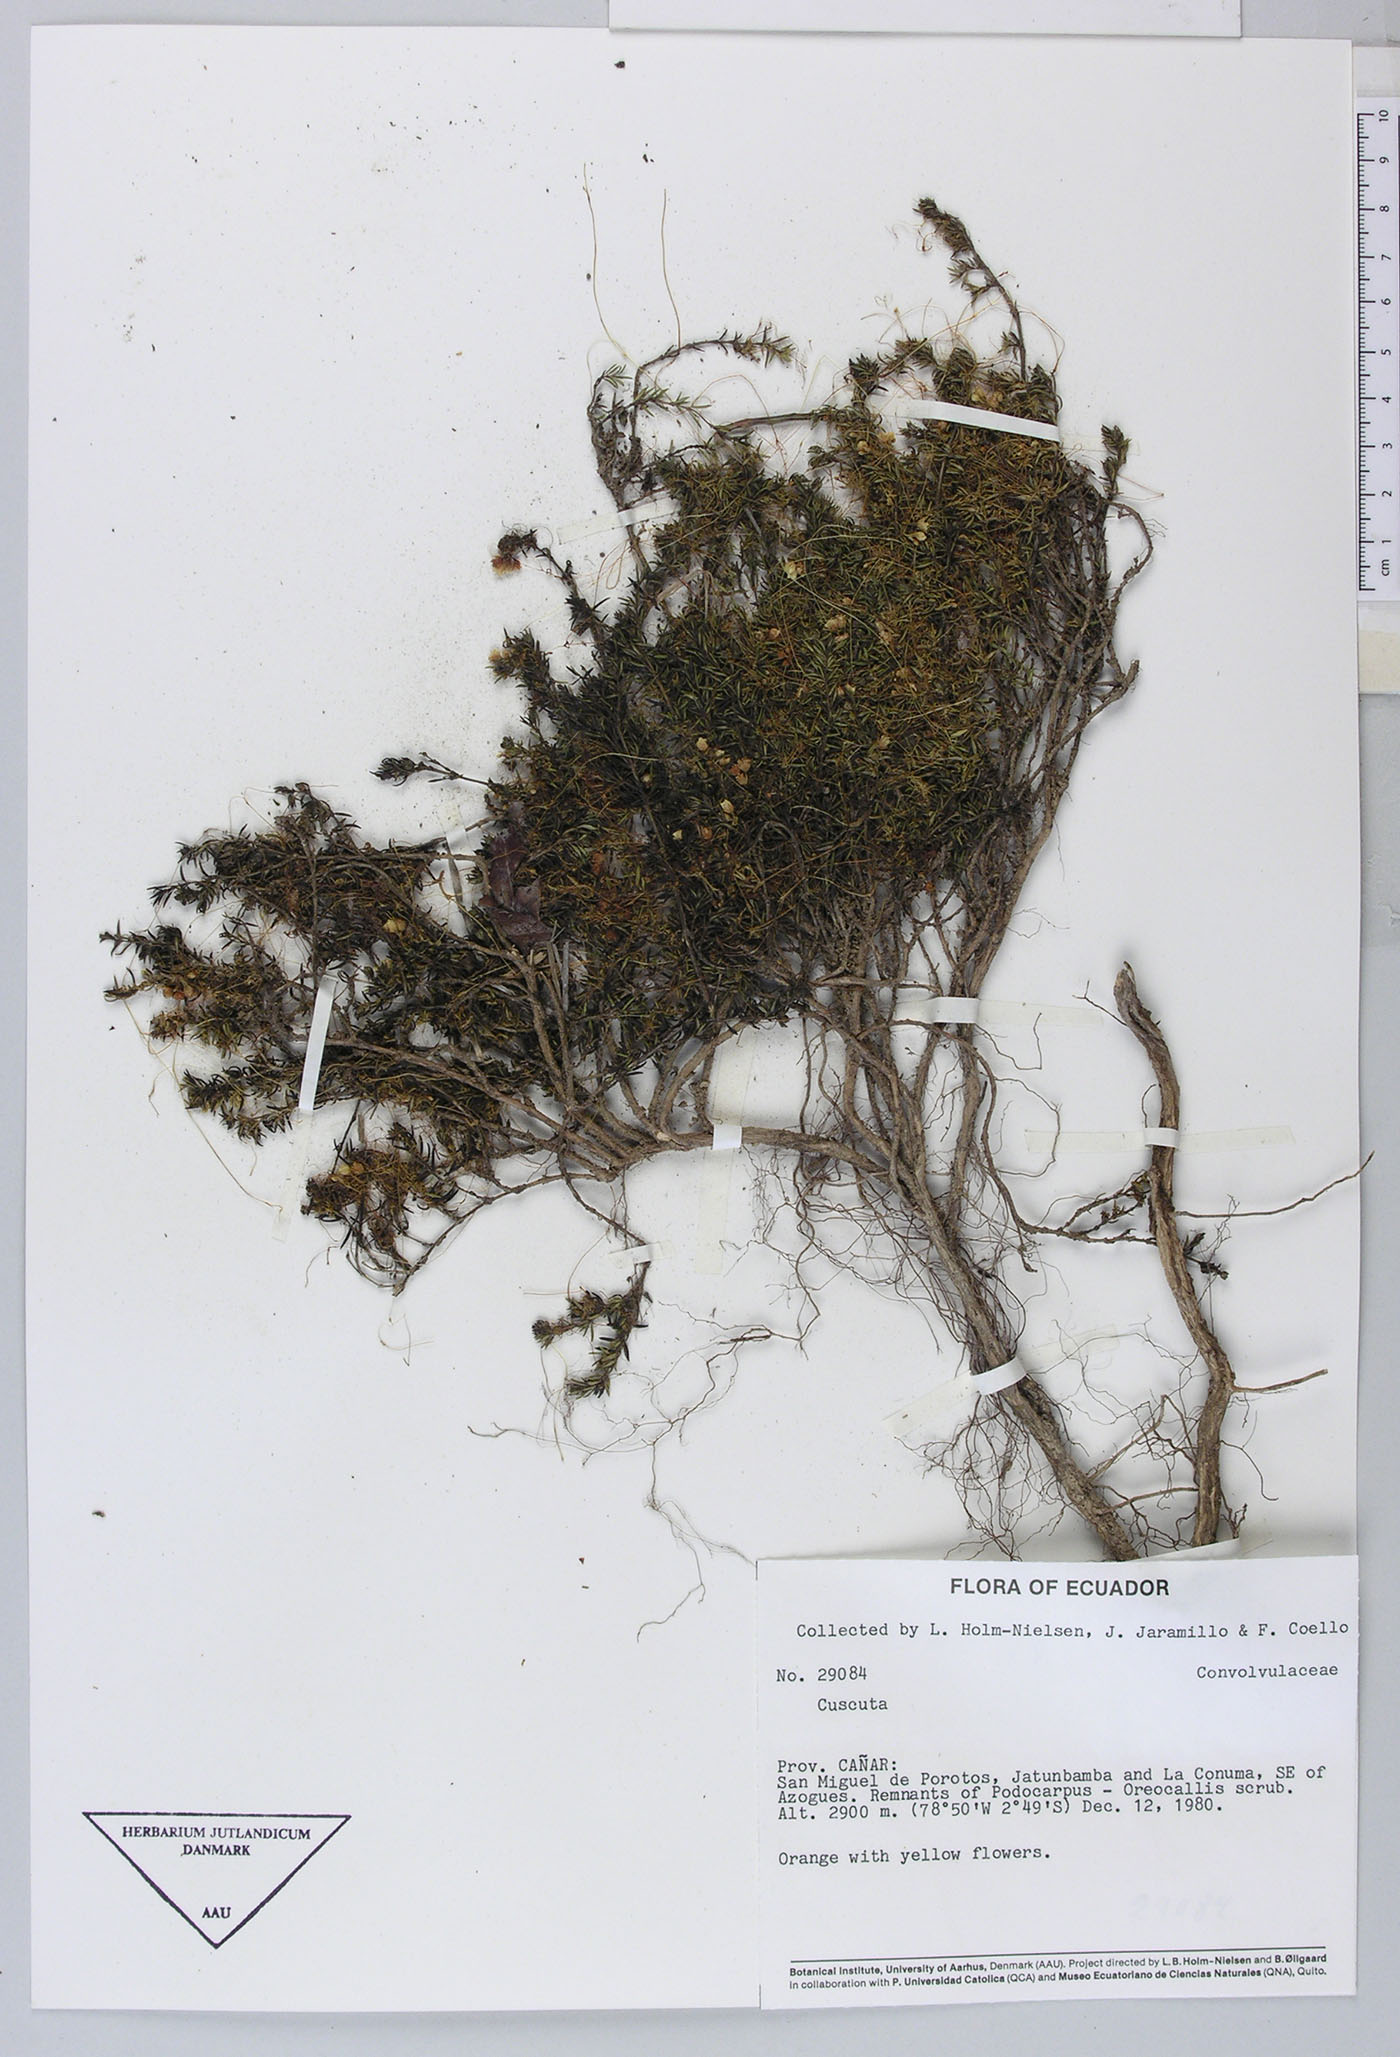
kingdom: Plantae
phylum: Tracheophyta
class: Magnoliopsida
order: Solanales
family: Convolvulaceae
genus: Cuscuta
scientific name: Cuscuta stenolepis
